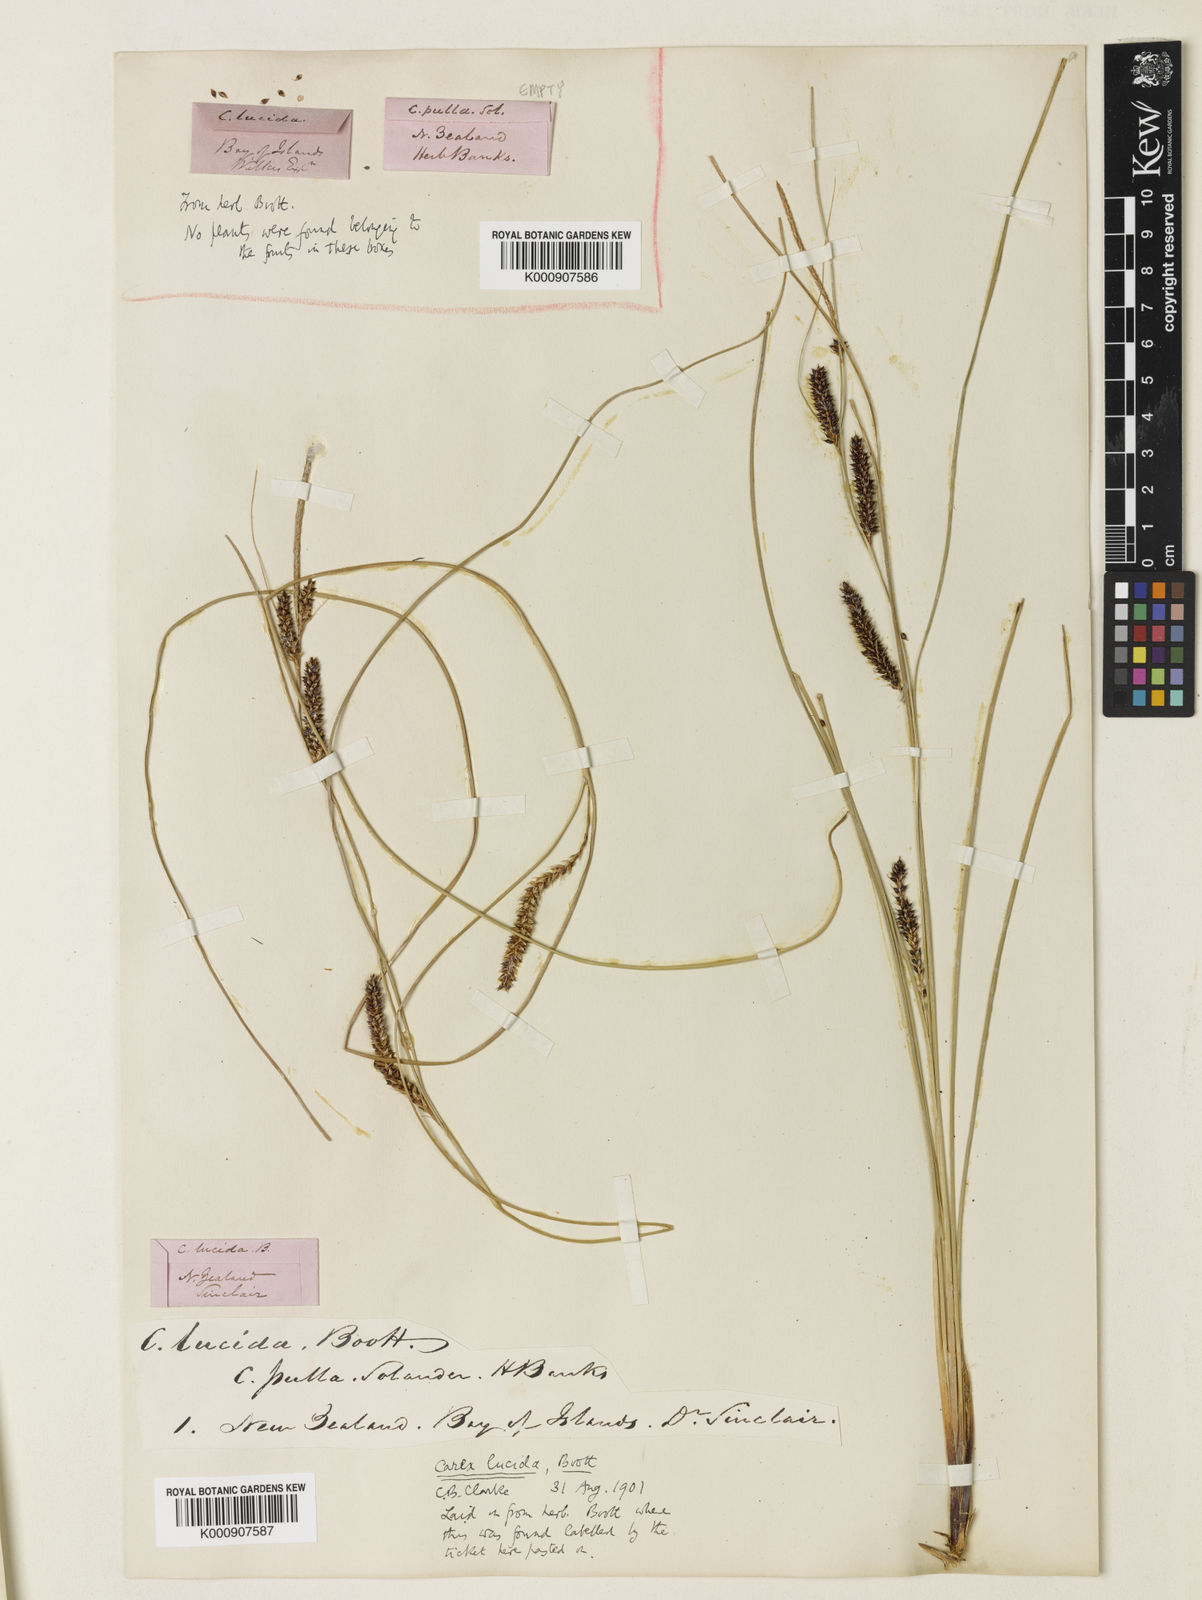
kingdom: Plantae
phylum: Tracheophyta
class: Liliopsida
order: Poales
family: Cyperaceae
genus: Carex
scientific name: Carex flagellifera
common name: Glen murray tussock
